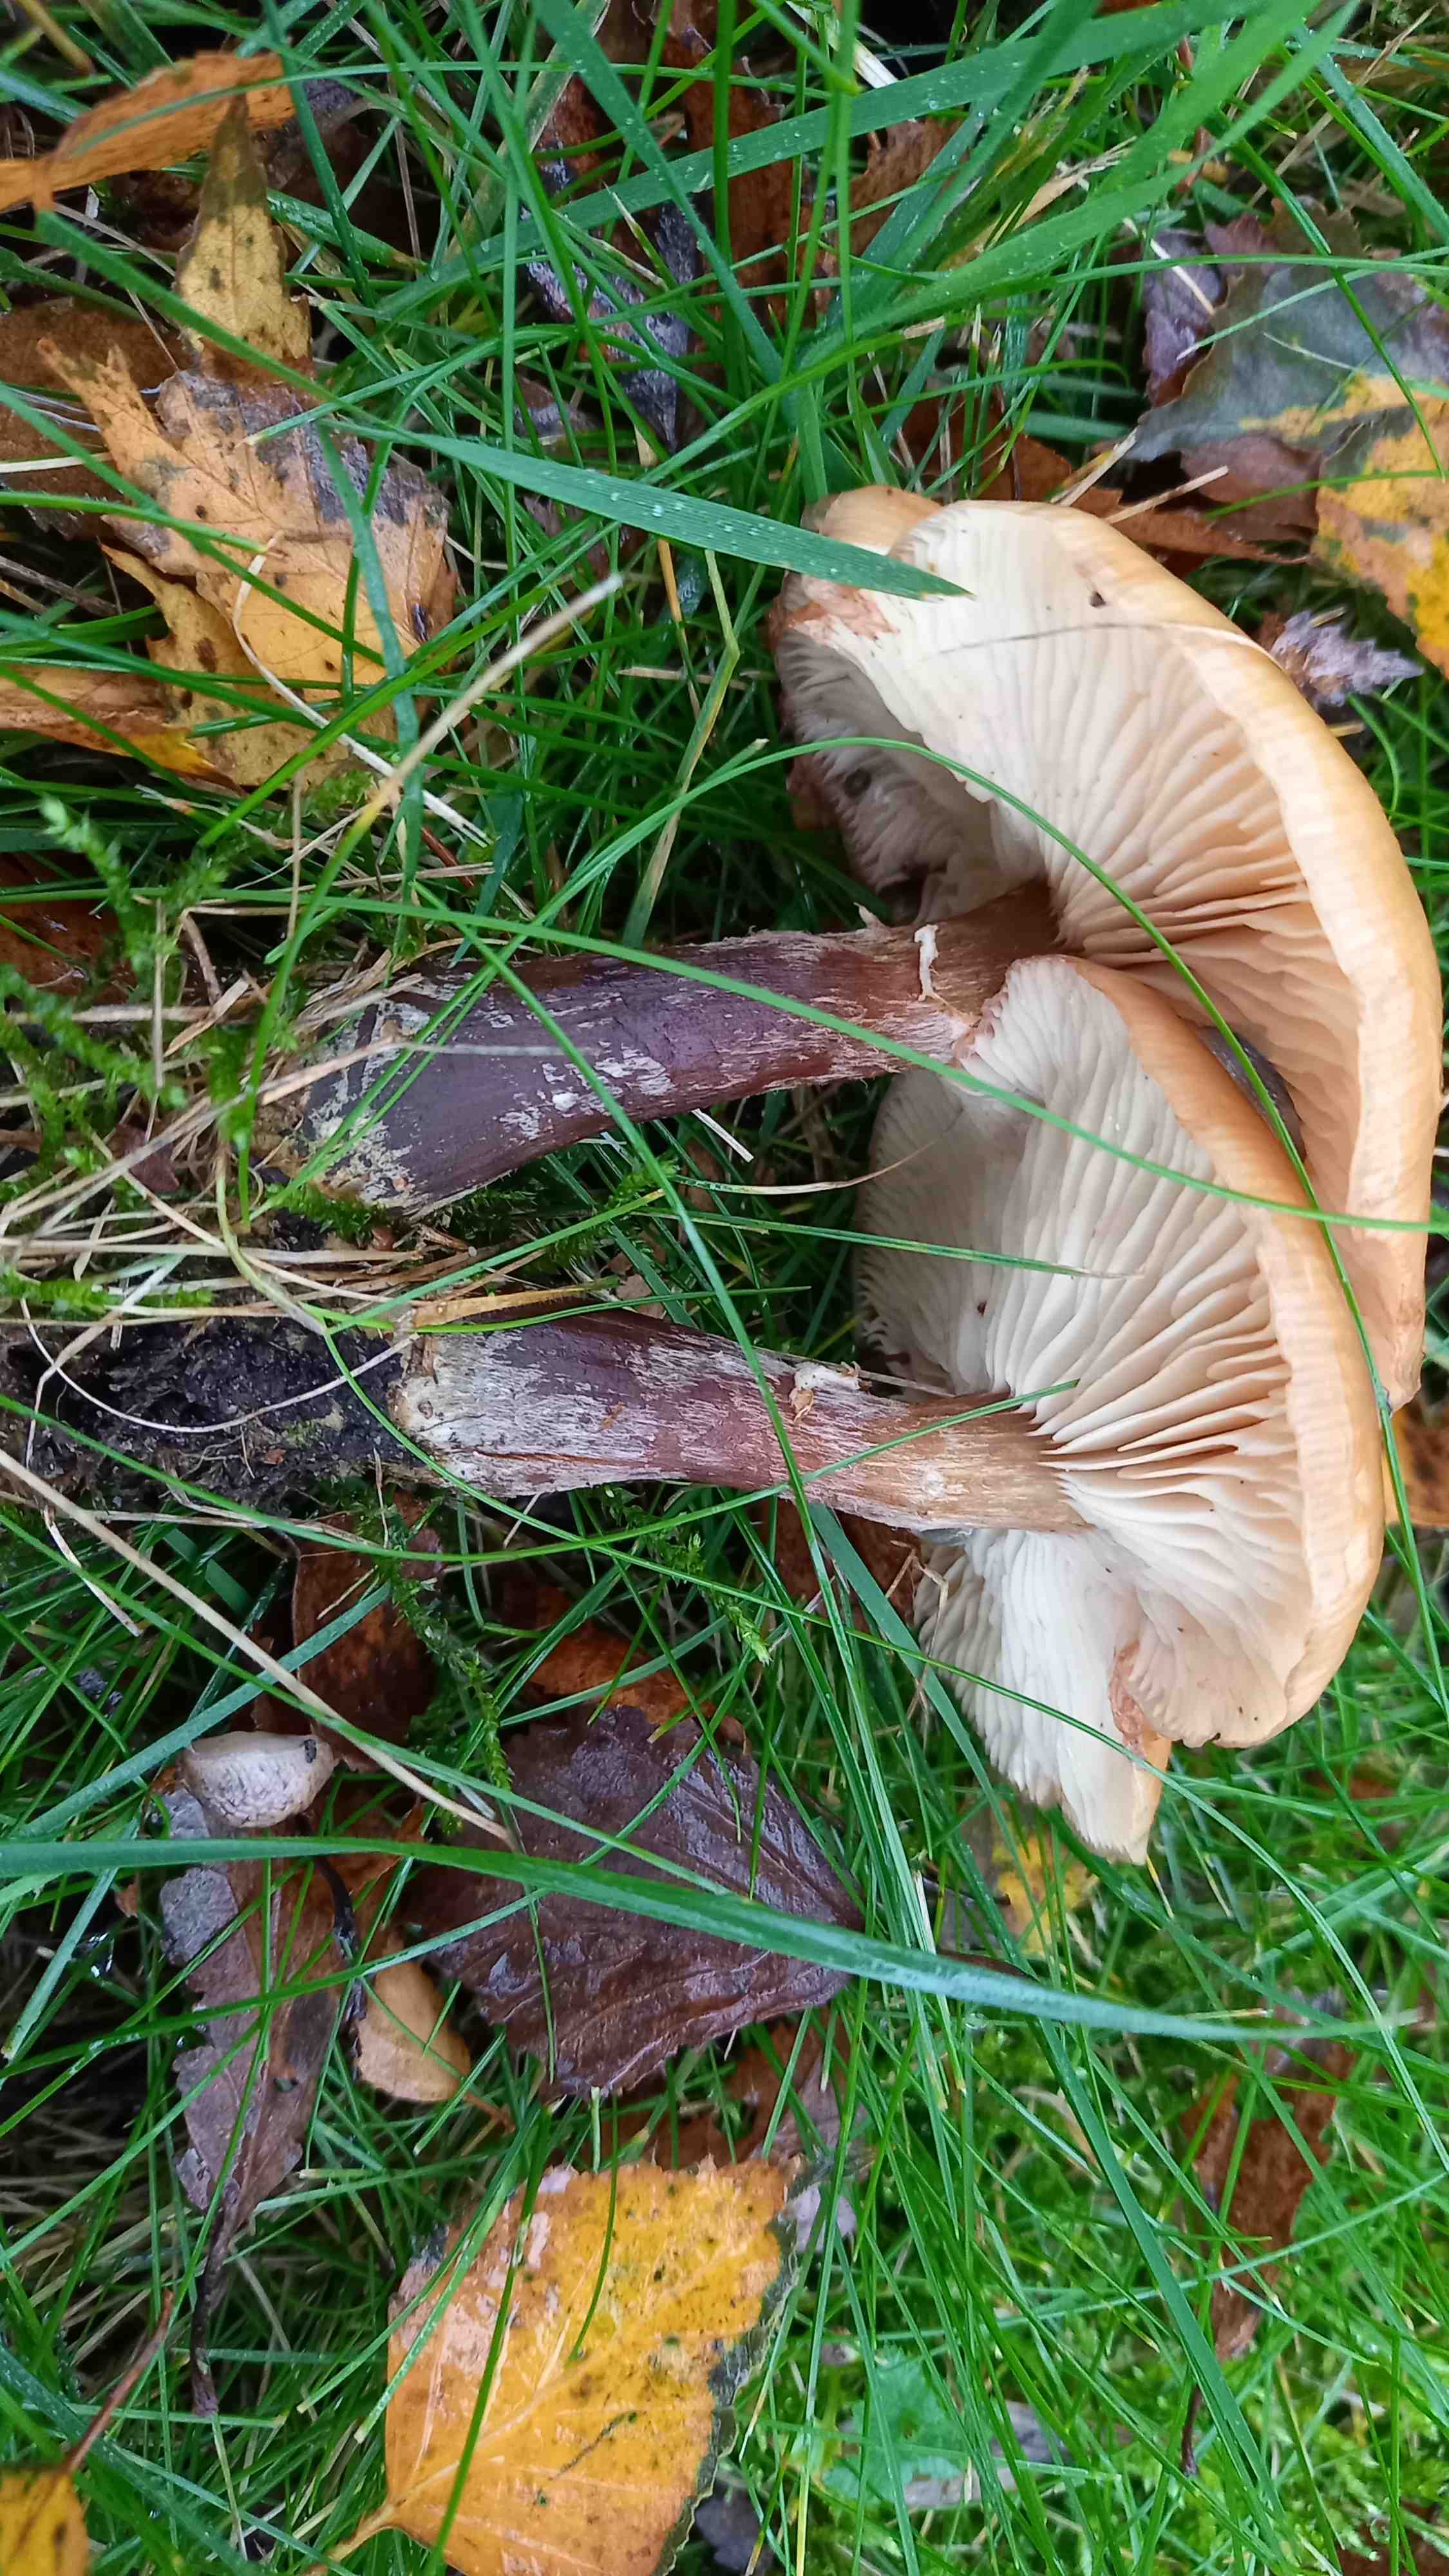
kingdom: Fungi
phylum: Basidiomycota
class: Agaricomycetes
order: Agaricales
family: Physalacriaceae
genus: Armillaria
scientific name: Armillaria lutea
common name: køllestokket honningsvamp
